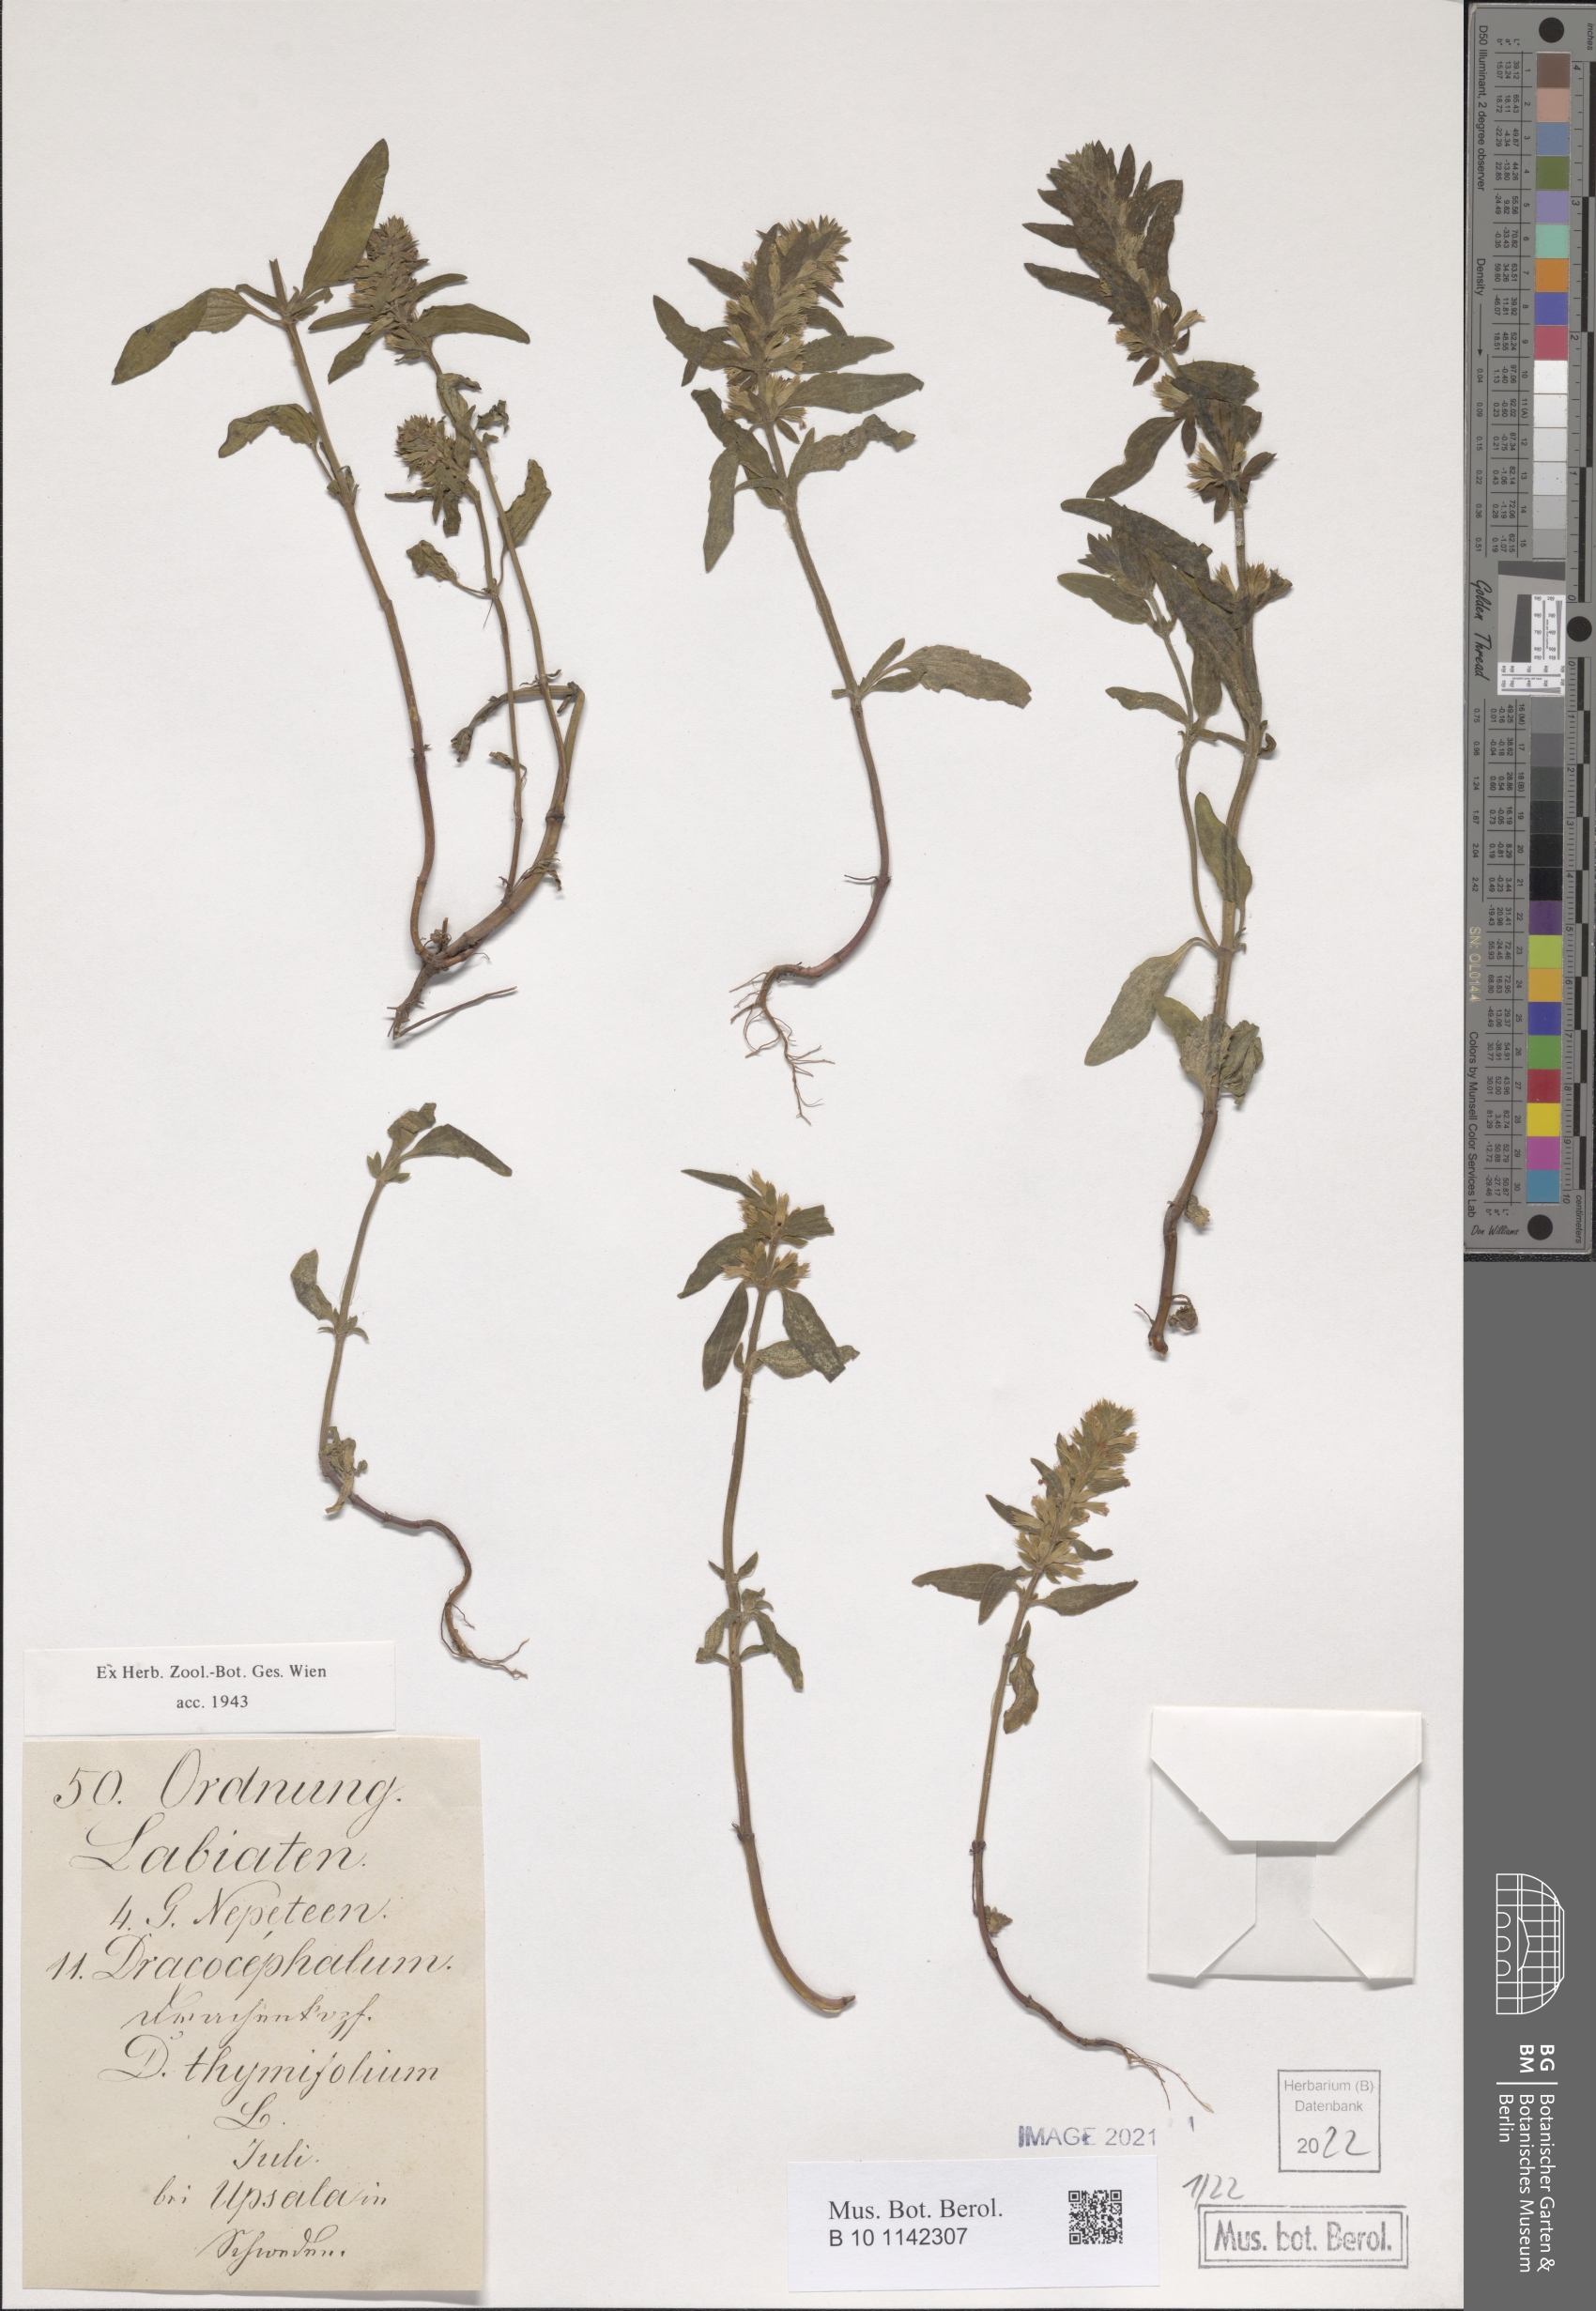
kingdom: Plantae
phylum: Tracheophyta
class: Magnoliopsida
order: Lamiales
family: Lamiaceae
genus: Dracocephalum
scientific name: Dracocephalum thymiflorum
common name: Thymeleaf dragonhead
